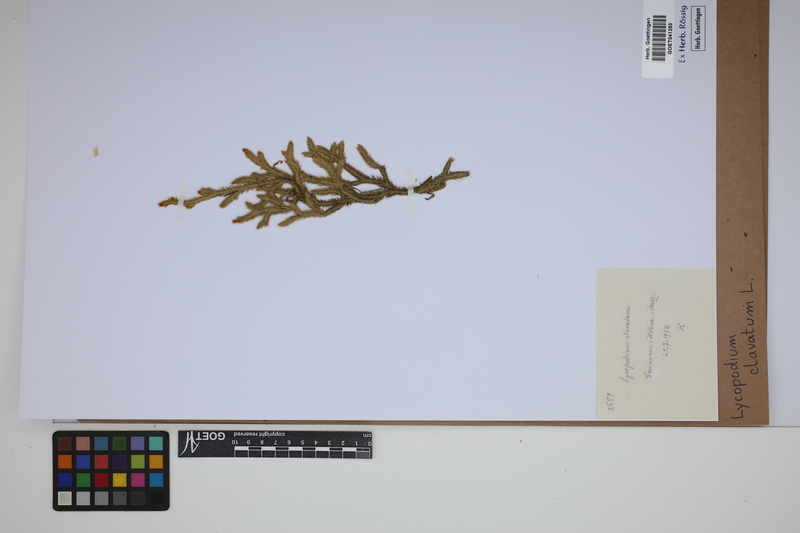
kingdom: Plantae
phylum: Tracheophyta
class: Lycopodiopsida
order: Lycopodiales
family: Lycopodiaceae
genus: Lycopodium
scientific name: Lycopodium clavatum
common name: Stag's-horn clubmoss
